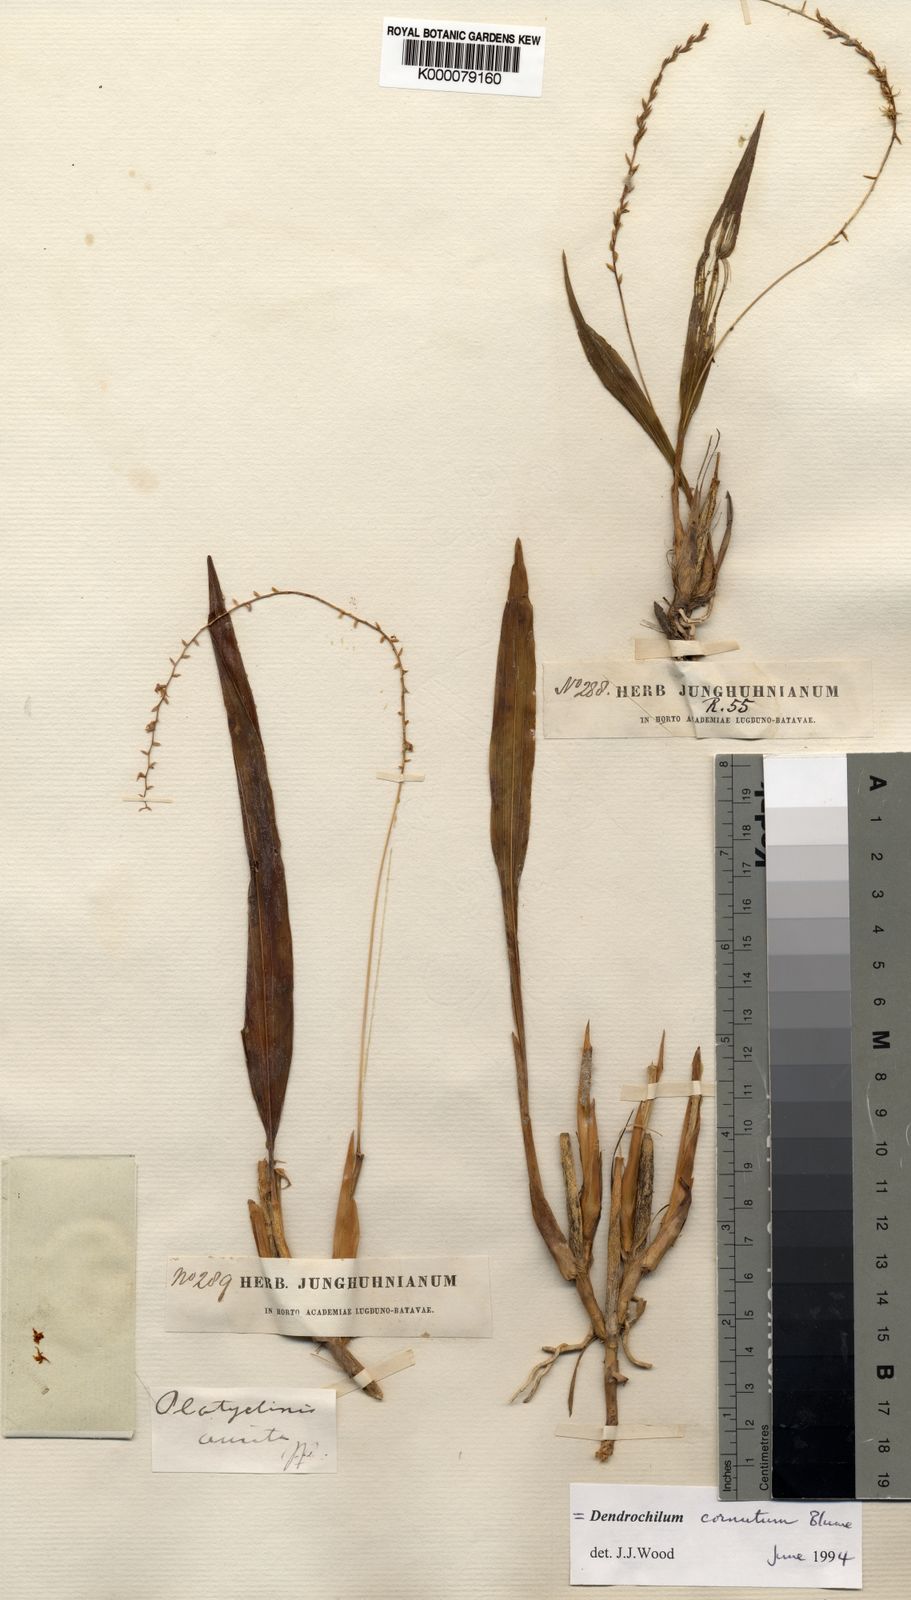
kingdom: Plantae
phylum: Tracheophyta
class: Liliopsida
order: Asparagales
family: Orchidaceae
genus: Coelogyne
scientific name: Coelogyne cornuta
